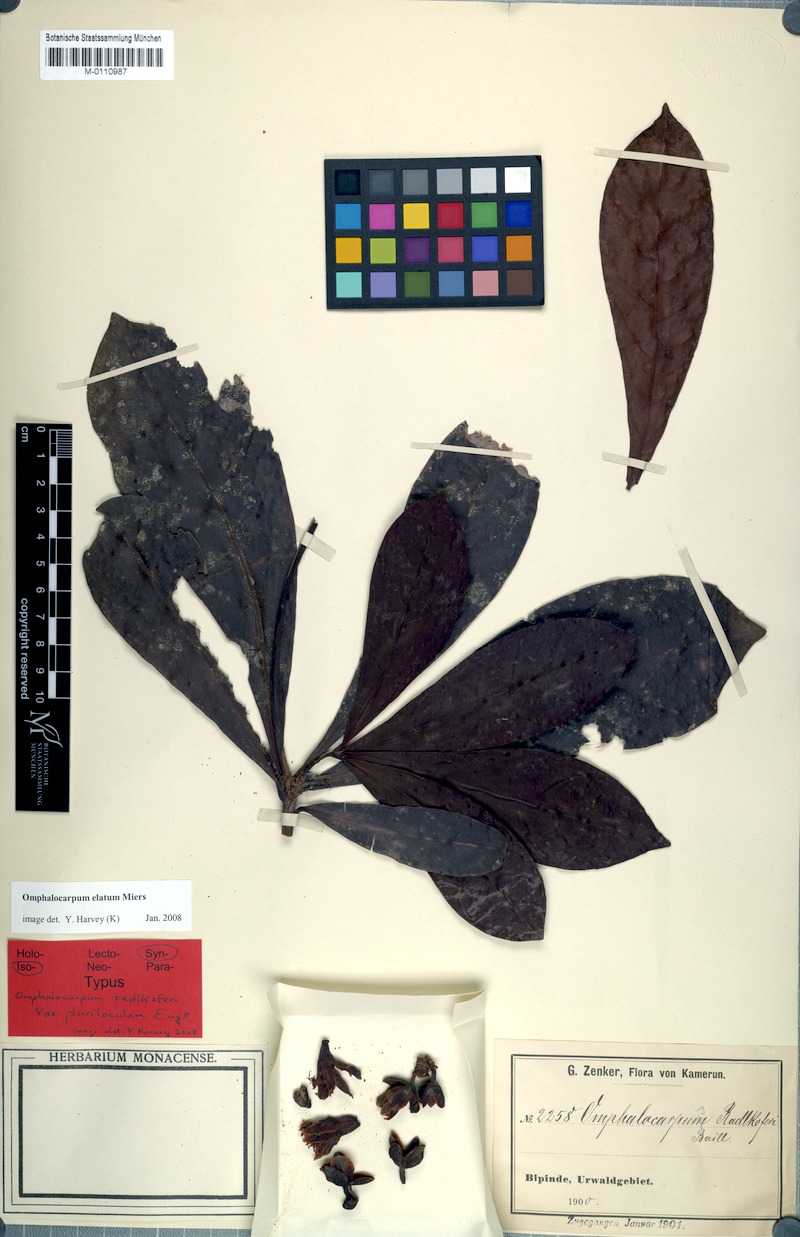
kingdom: Plantae
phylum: Tracheophyta
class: Magnoliopsida
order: Ericales
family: Sapotaceae
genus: Omphalocarpum
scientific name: Omphalocarpum elatum
